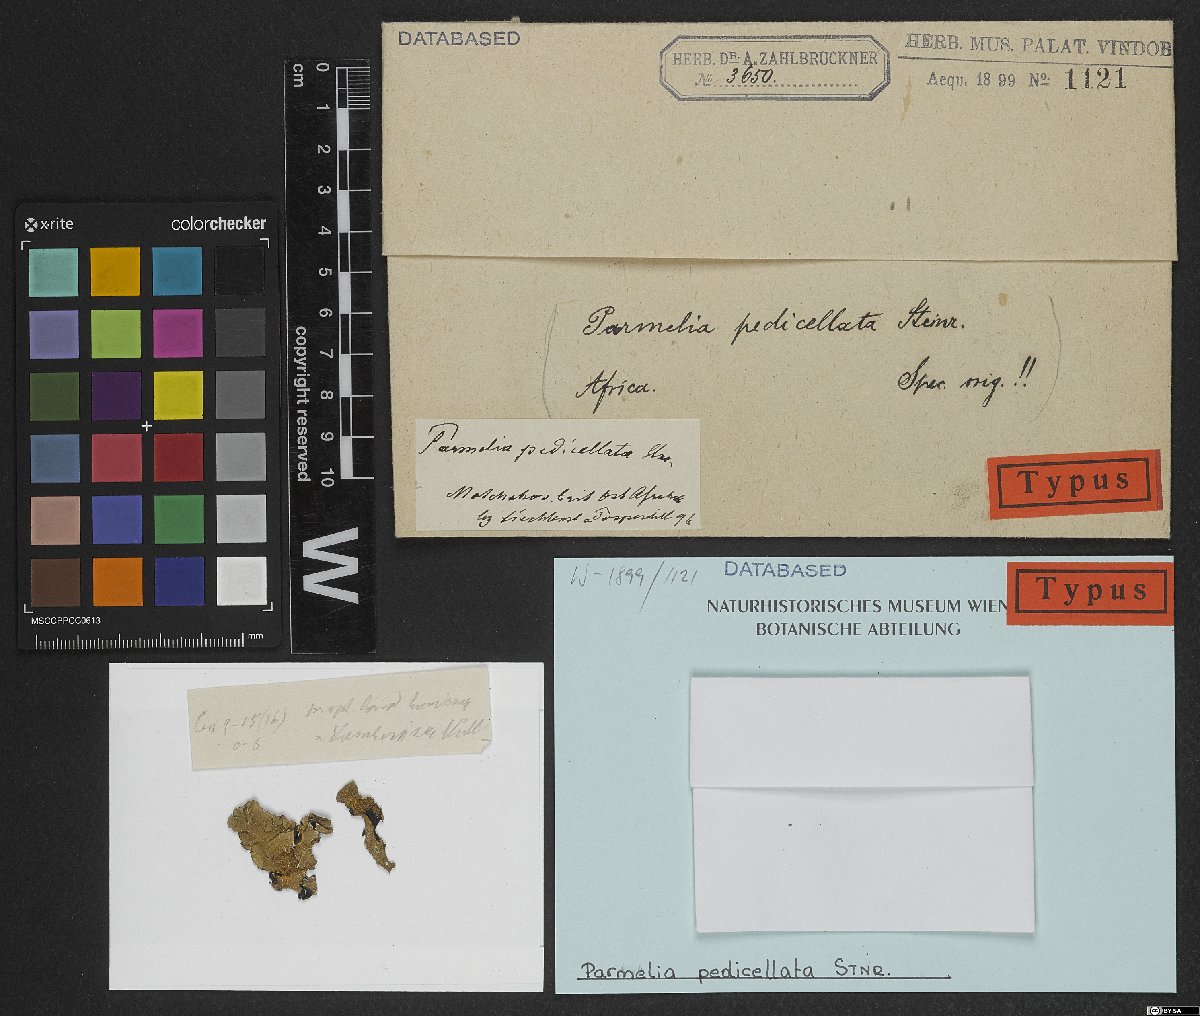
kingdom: Fungi
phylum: Ascomycota
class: Lecanoromycetes
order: Lecanorales
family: Parmeliaceae
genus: Parmelia
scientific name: Parmelia
